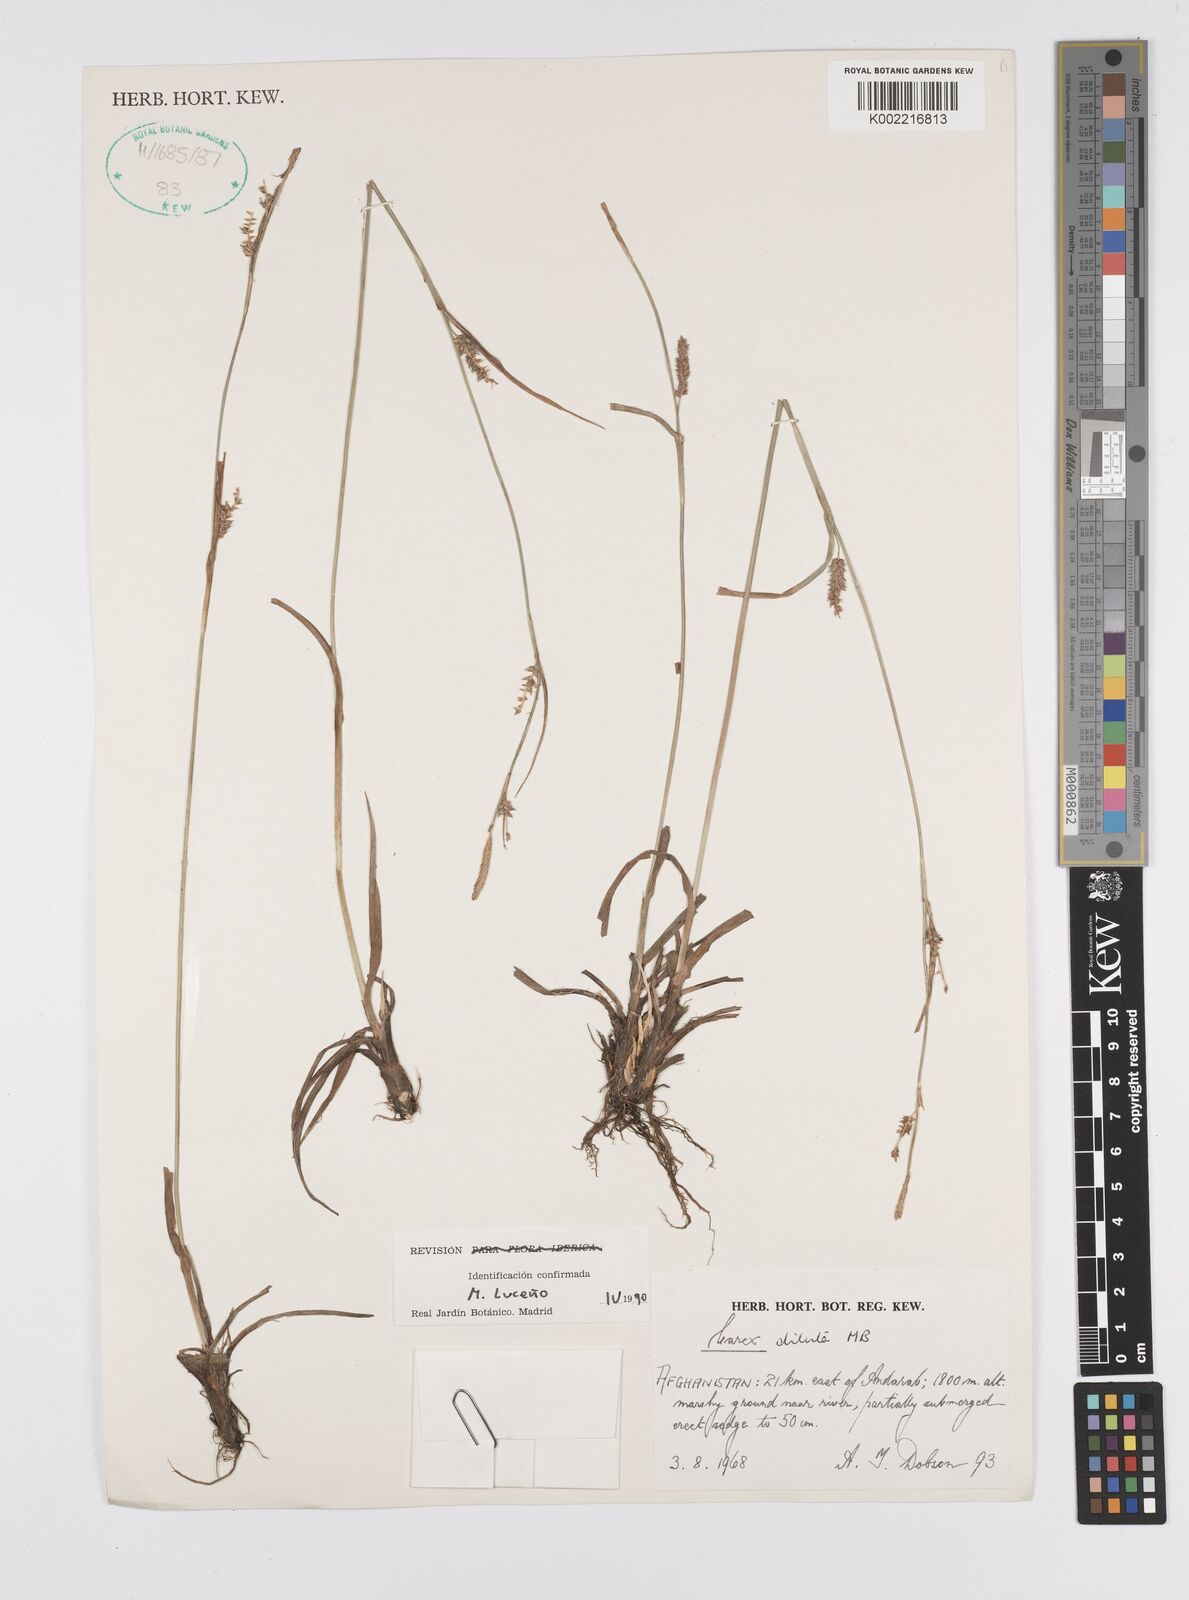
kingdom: Plantae
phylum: Tracheophyta
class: Liliopsida
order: Poales
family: Cyperaceae
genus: Carex
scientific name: Carex diluta
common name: Sedge
